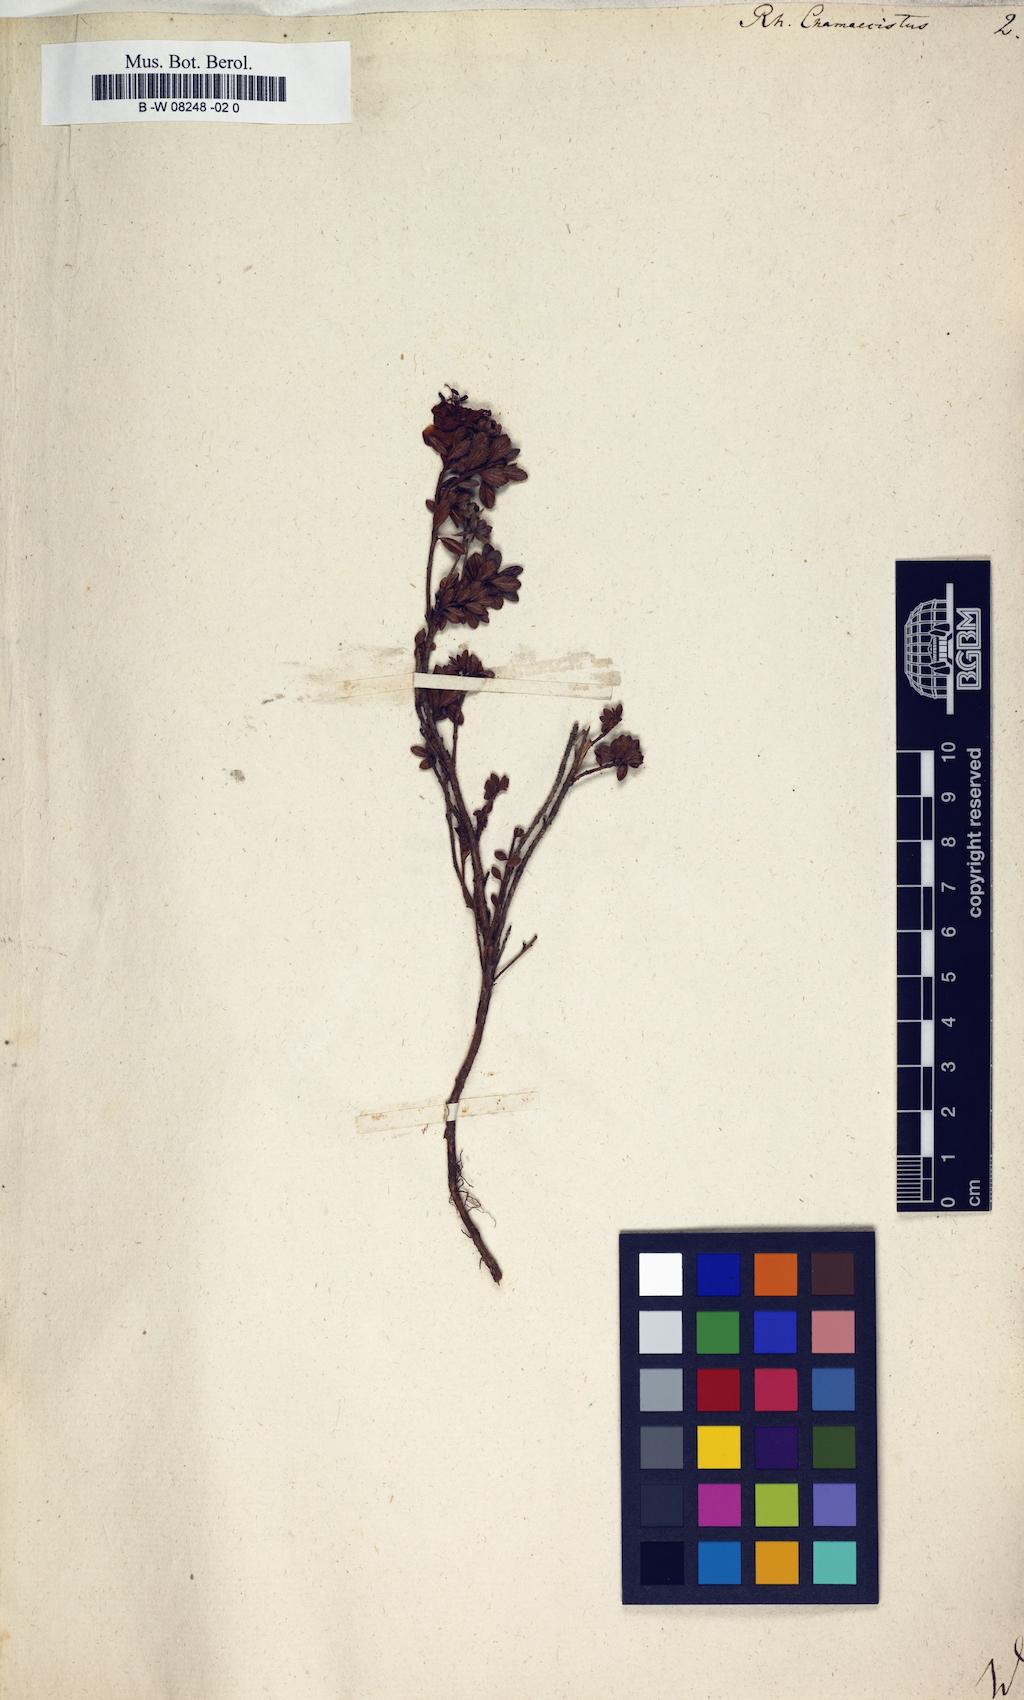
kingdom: Plantae
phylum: Tracheophyta
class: Magnoliopsida
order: Ericales
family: Ericaceae
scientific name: Ericaceae
